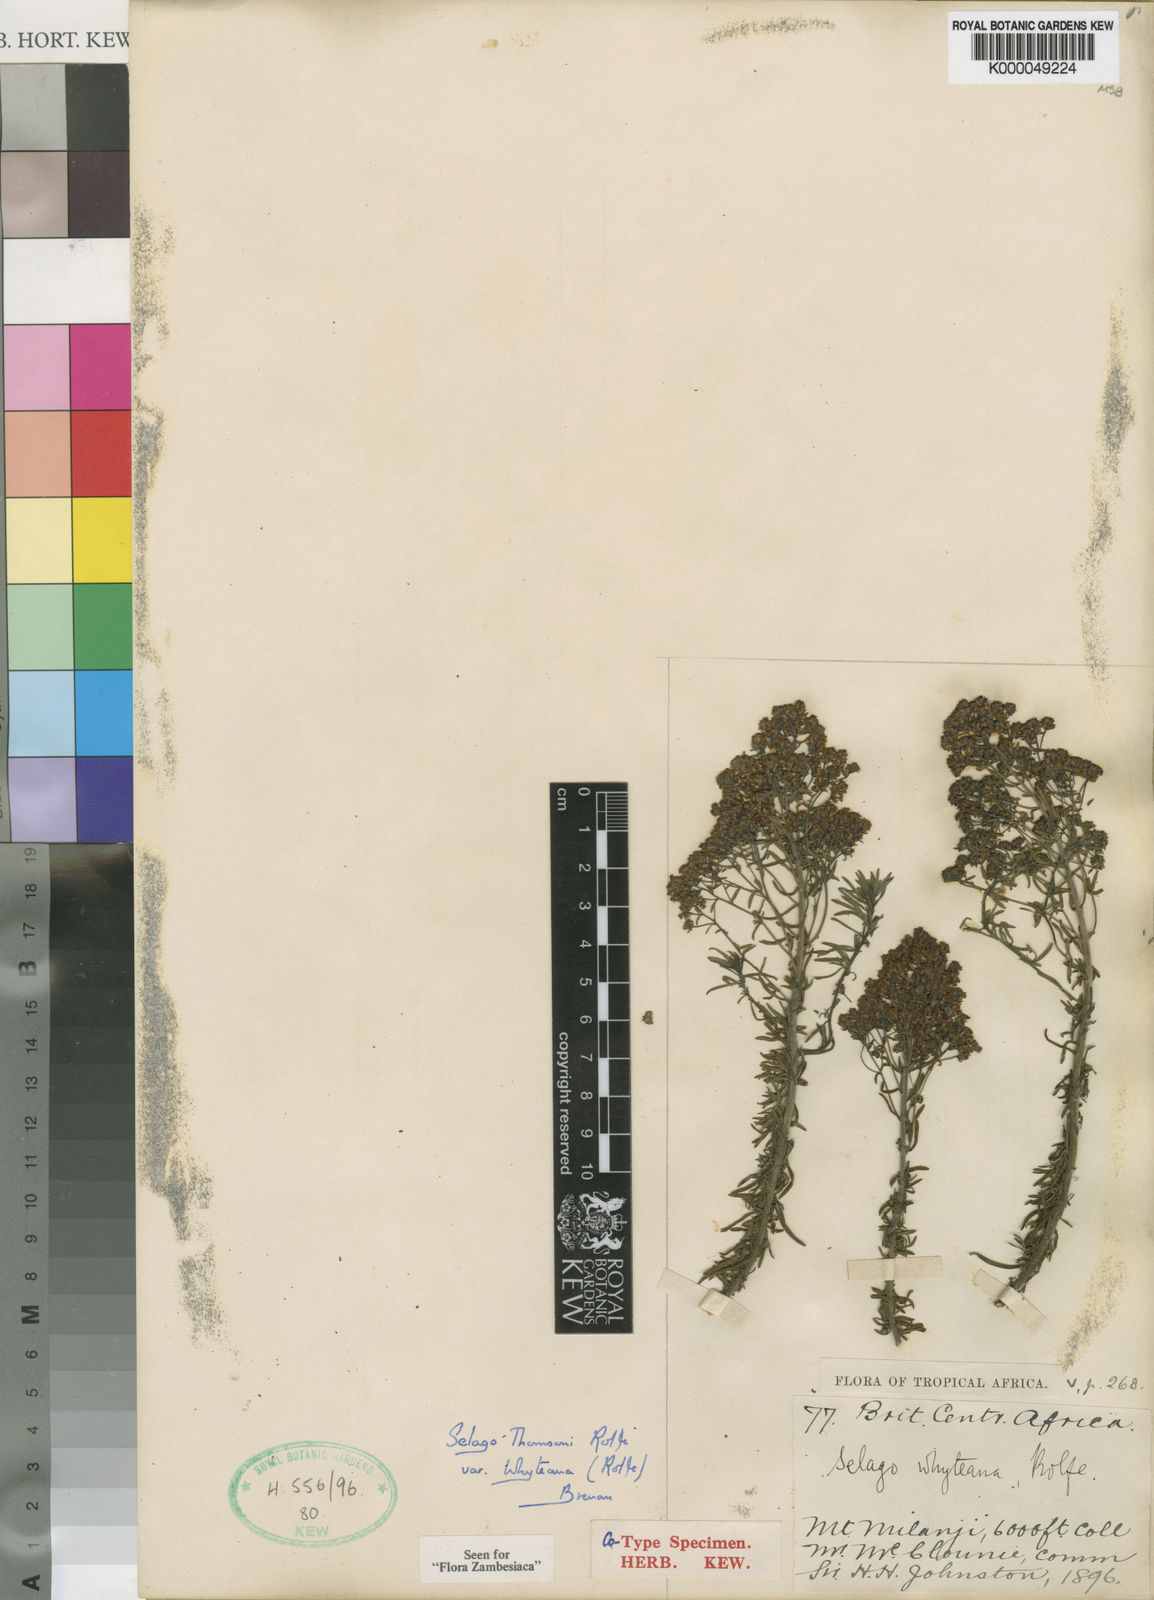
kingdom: Plantae
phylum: Tracheophyta
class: Magnoliopsida
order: Lamiales
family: Scrophulariaceae
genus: Selago
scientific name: Selago thomsonii
